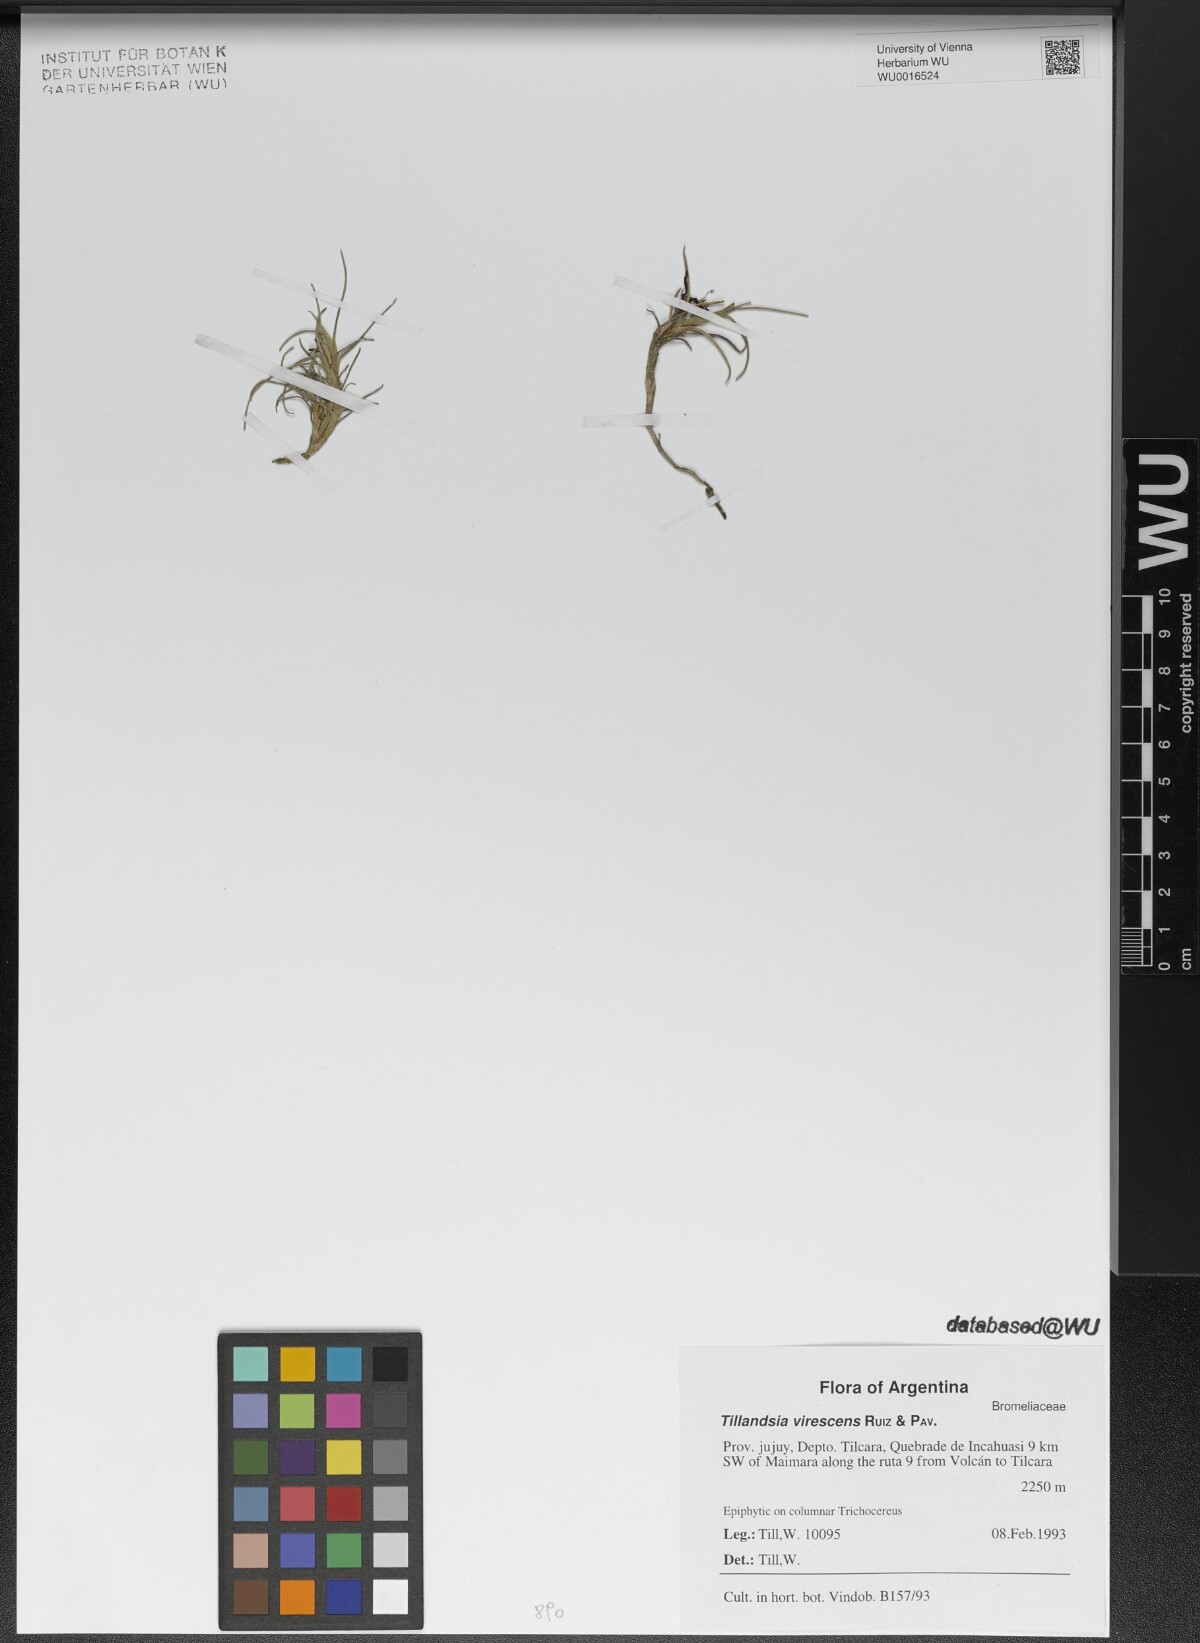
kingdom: Plantae
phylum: Tracheophyta
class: Liliopsida
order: Poales
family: Bromeliaceae
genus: Tillandsia
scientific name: Tillandsia virescens
